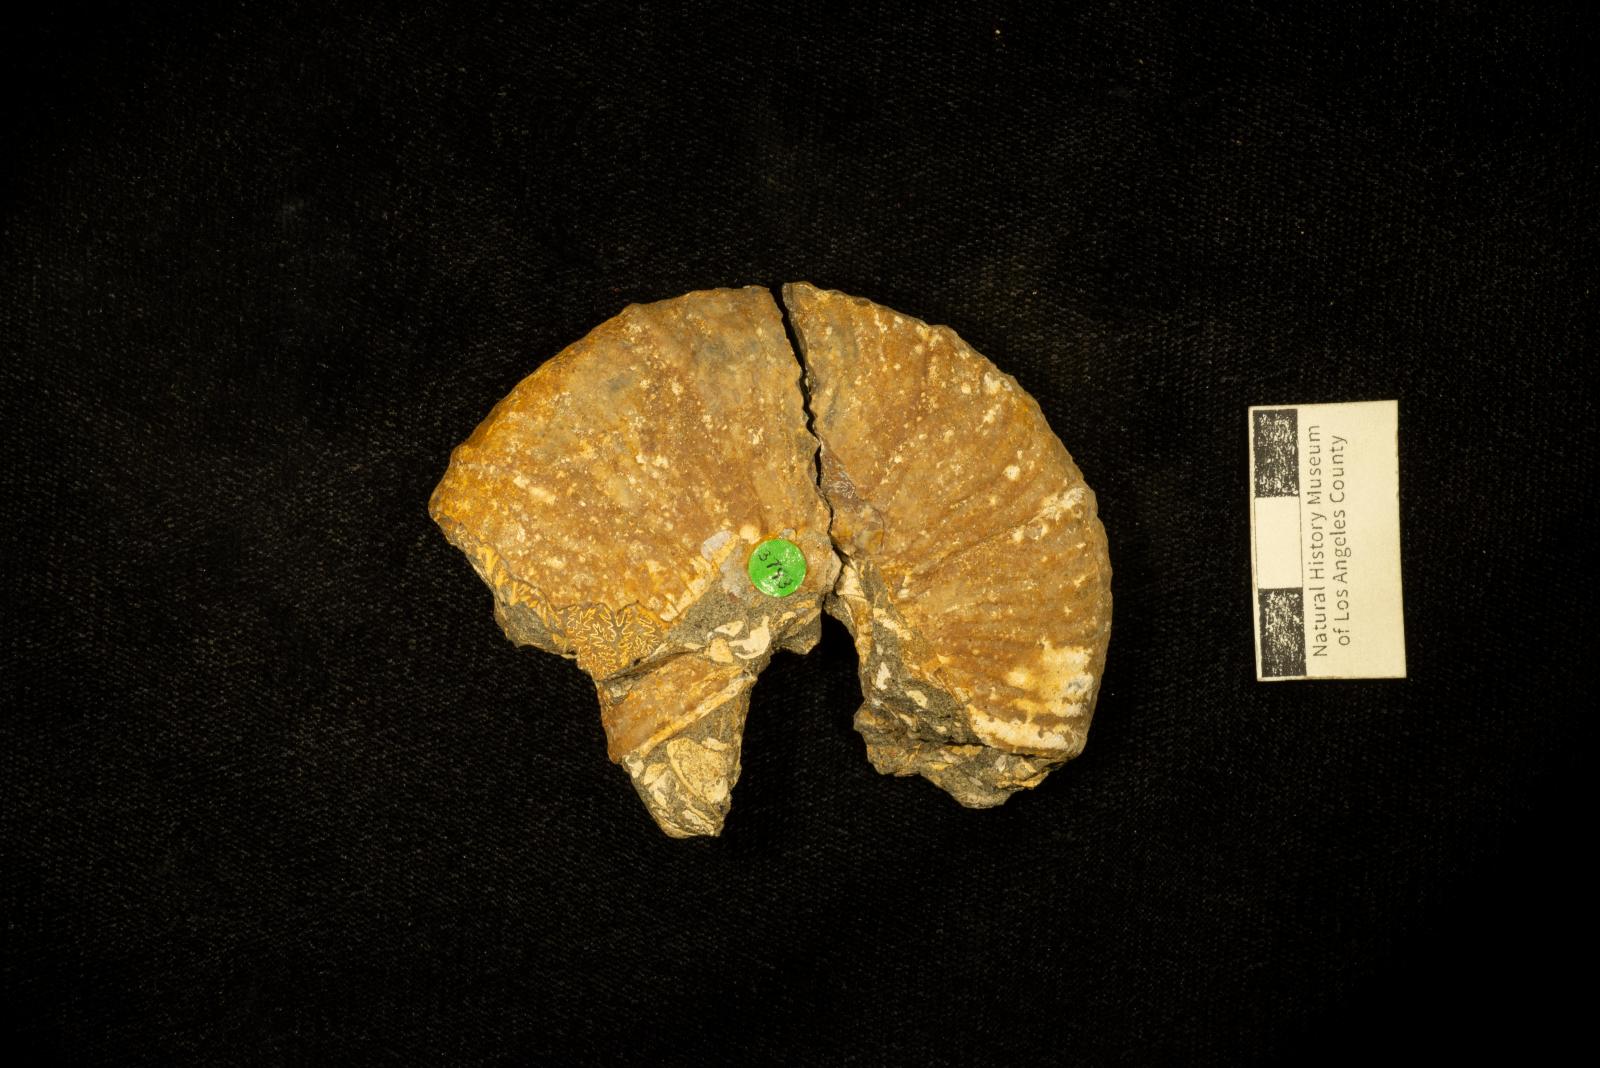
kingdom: Animalia
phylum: Mollusca
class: Cephalopoda
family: Pachydiscidae
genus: Canadoceras
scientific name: Canadoceras
